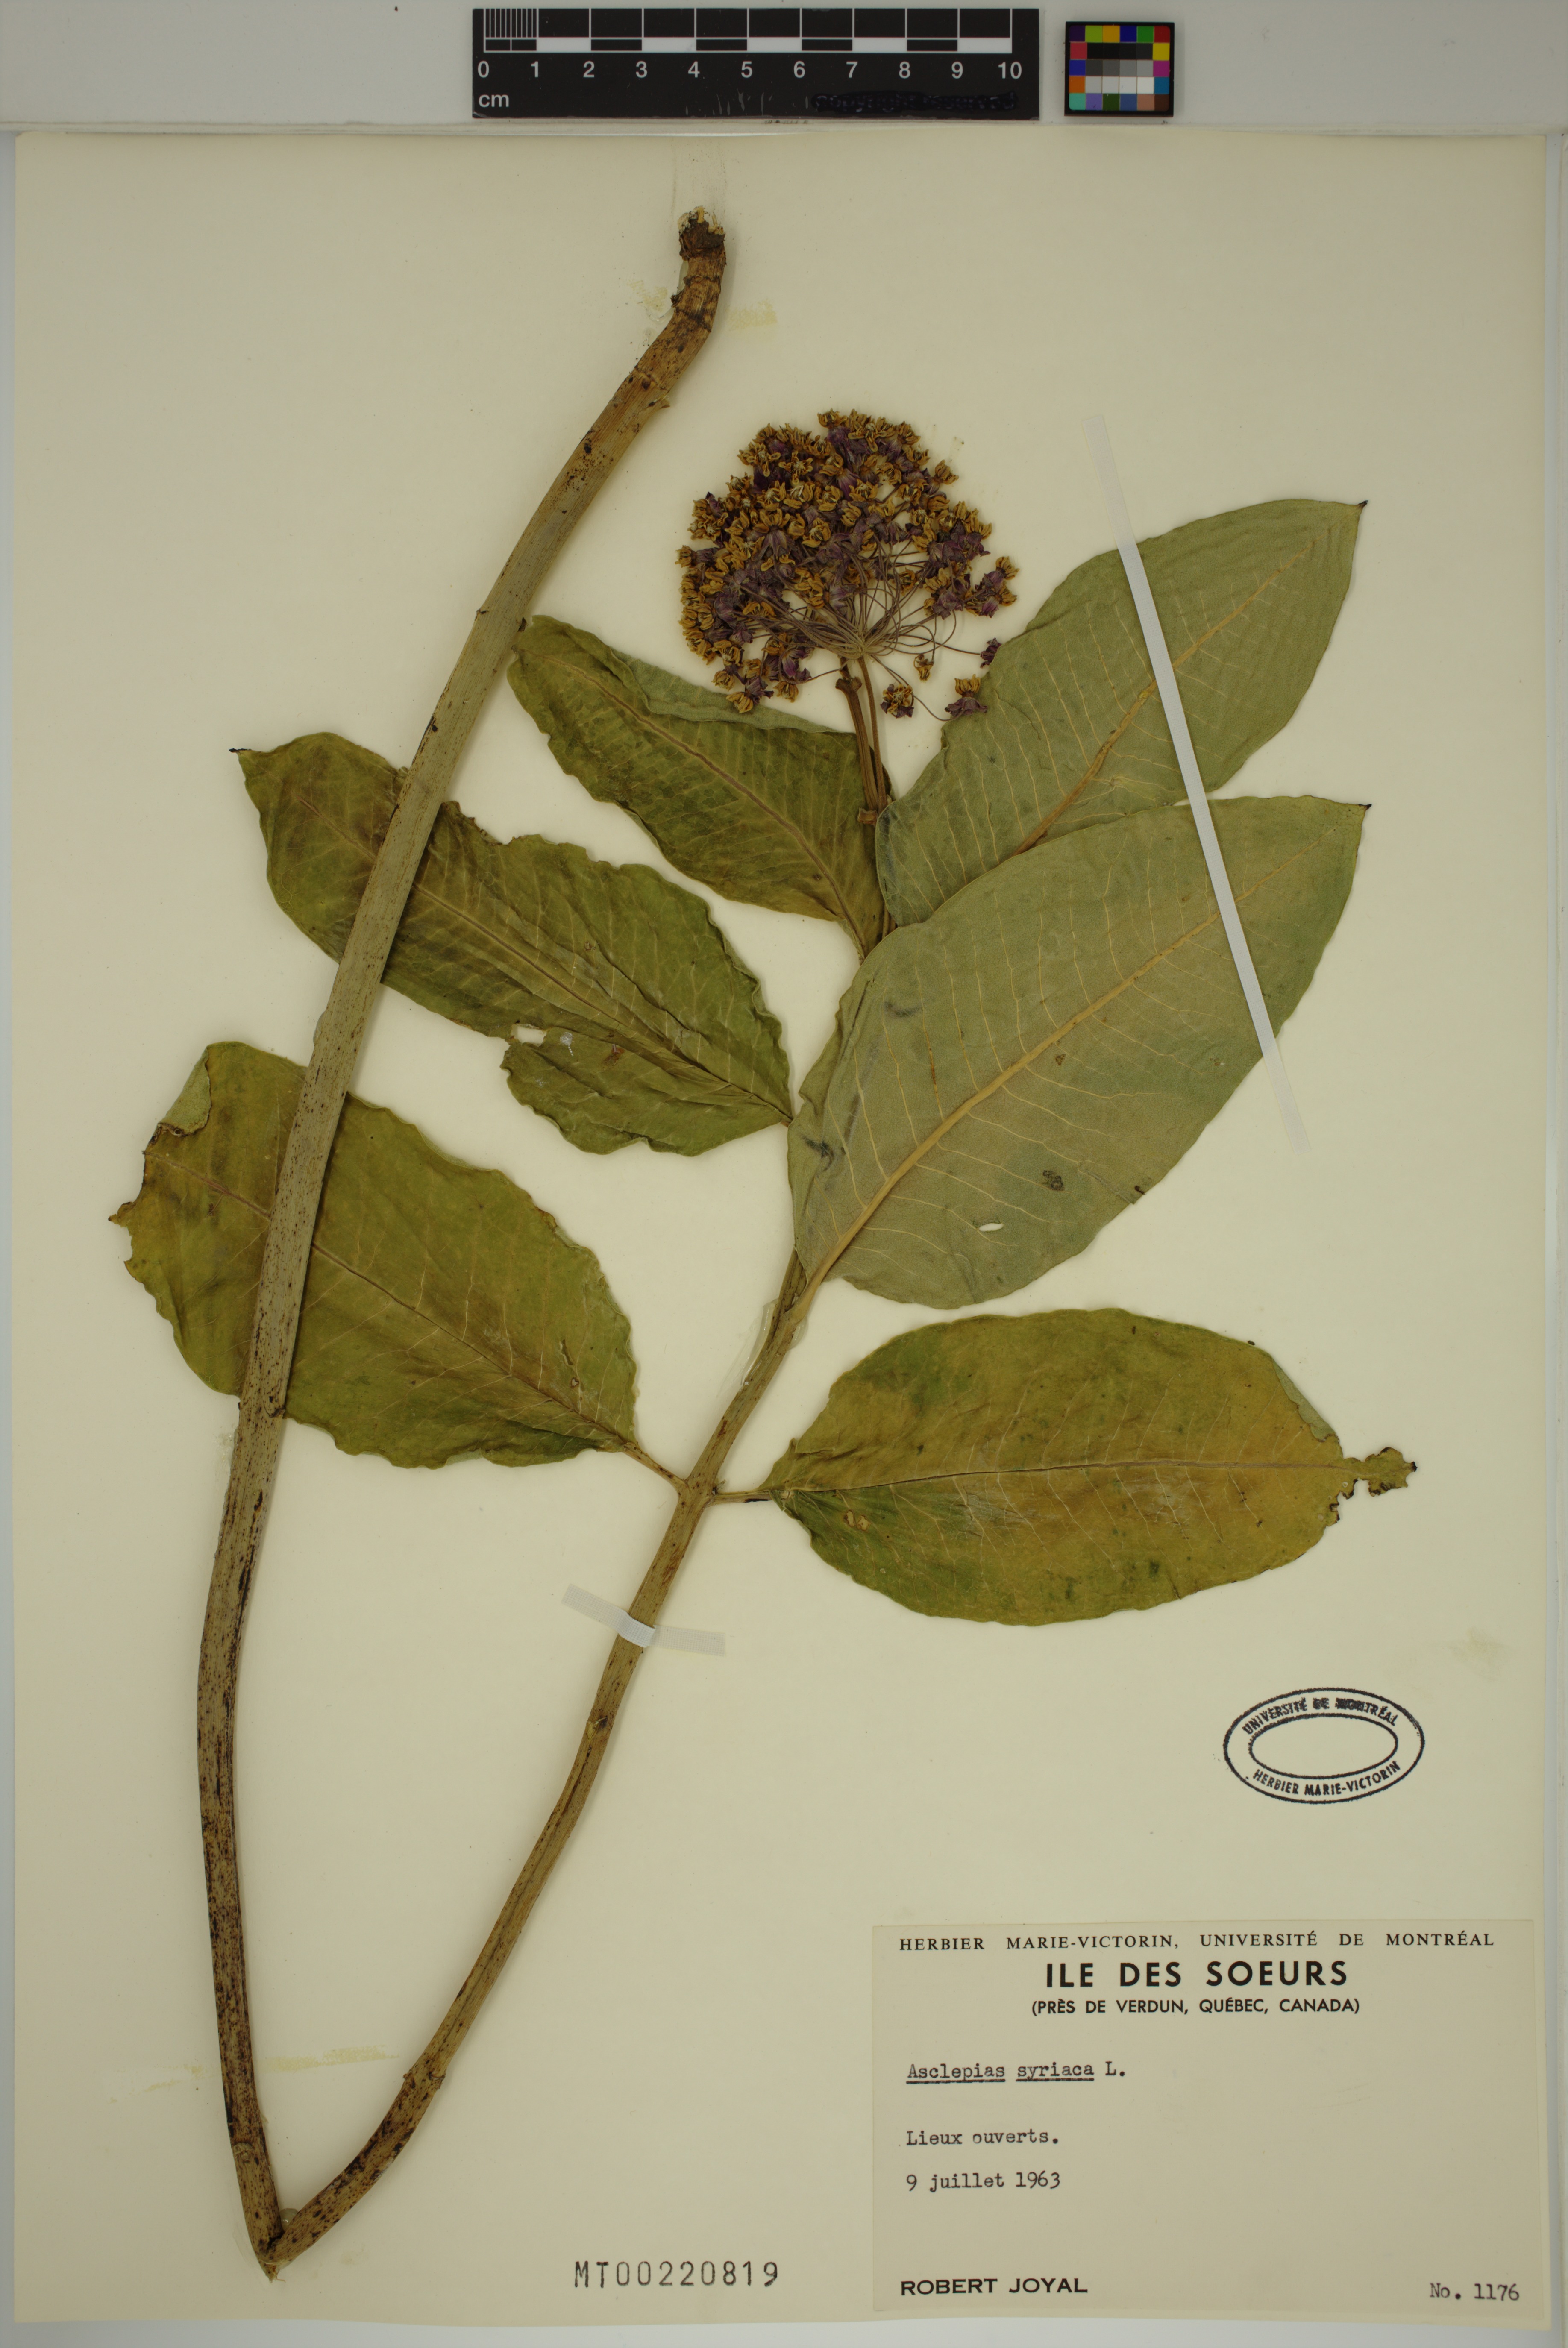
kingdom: Plantae
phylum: Tracheophyta
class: Magnoliopsida
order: Gentianales
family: Apocynaceae
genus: Asclepias
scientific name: Asclepias syriaca
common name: Common milkweed
